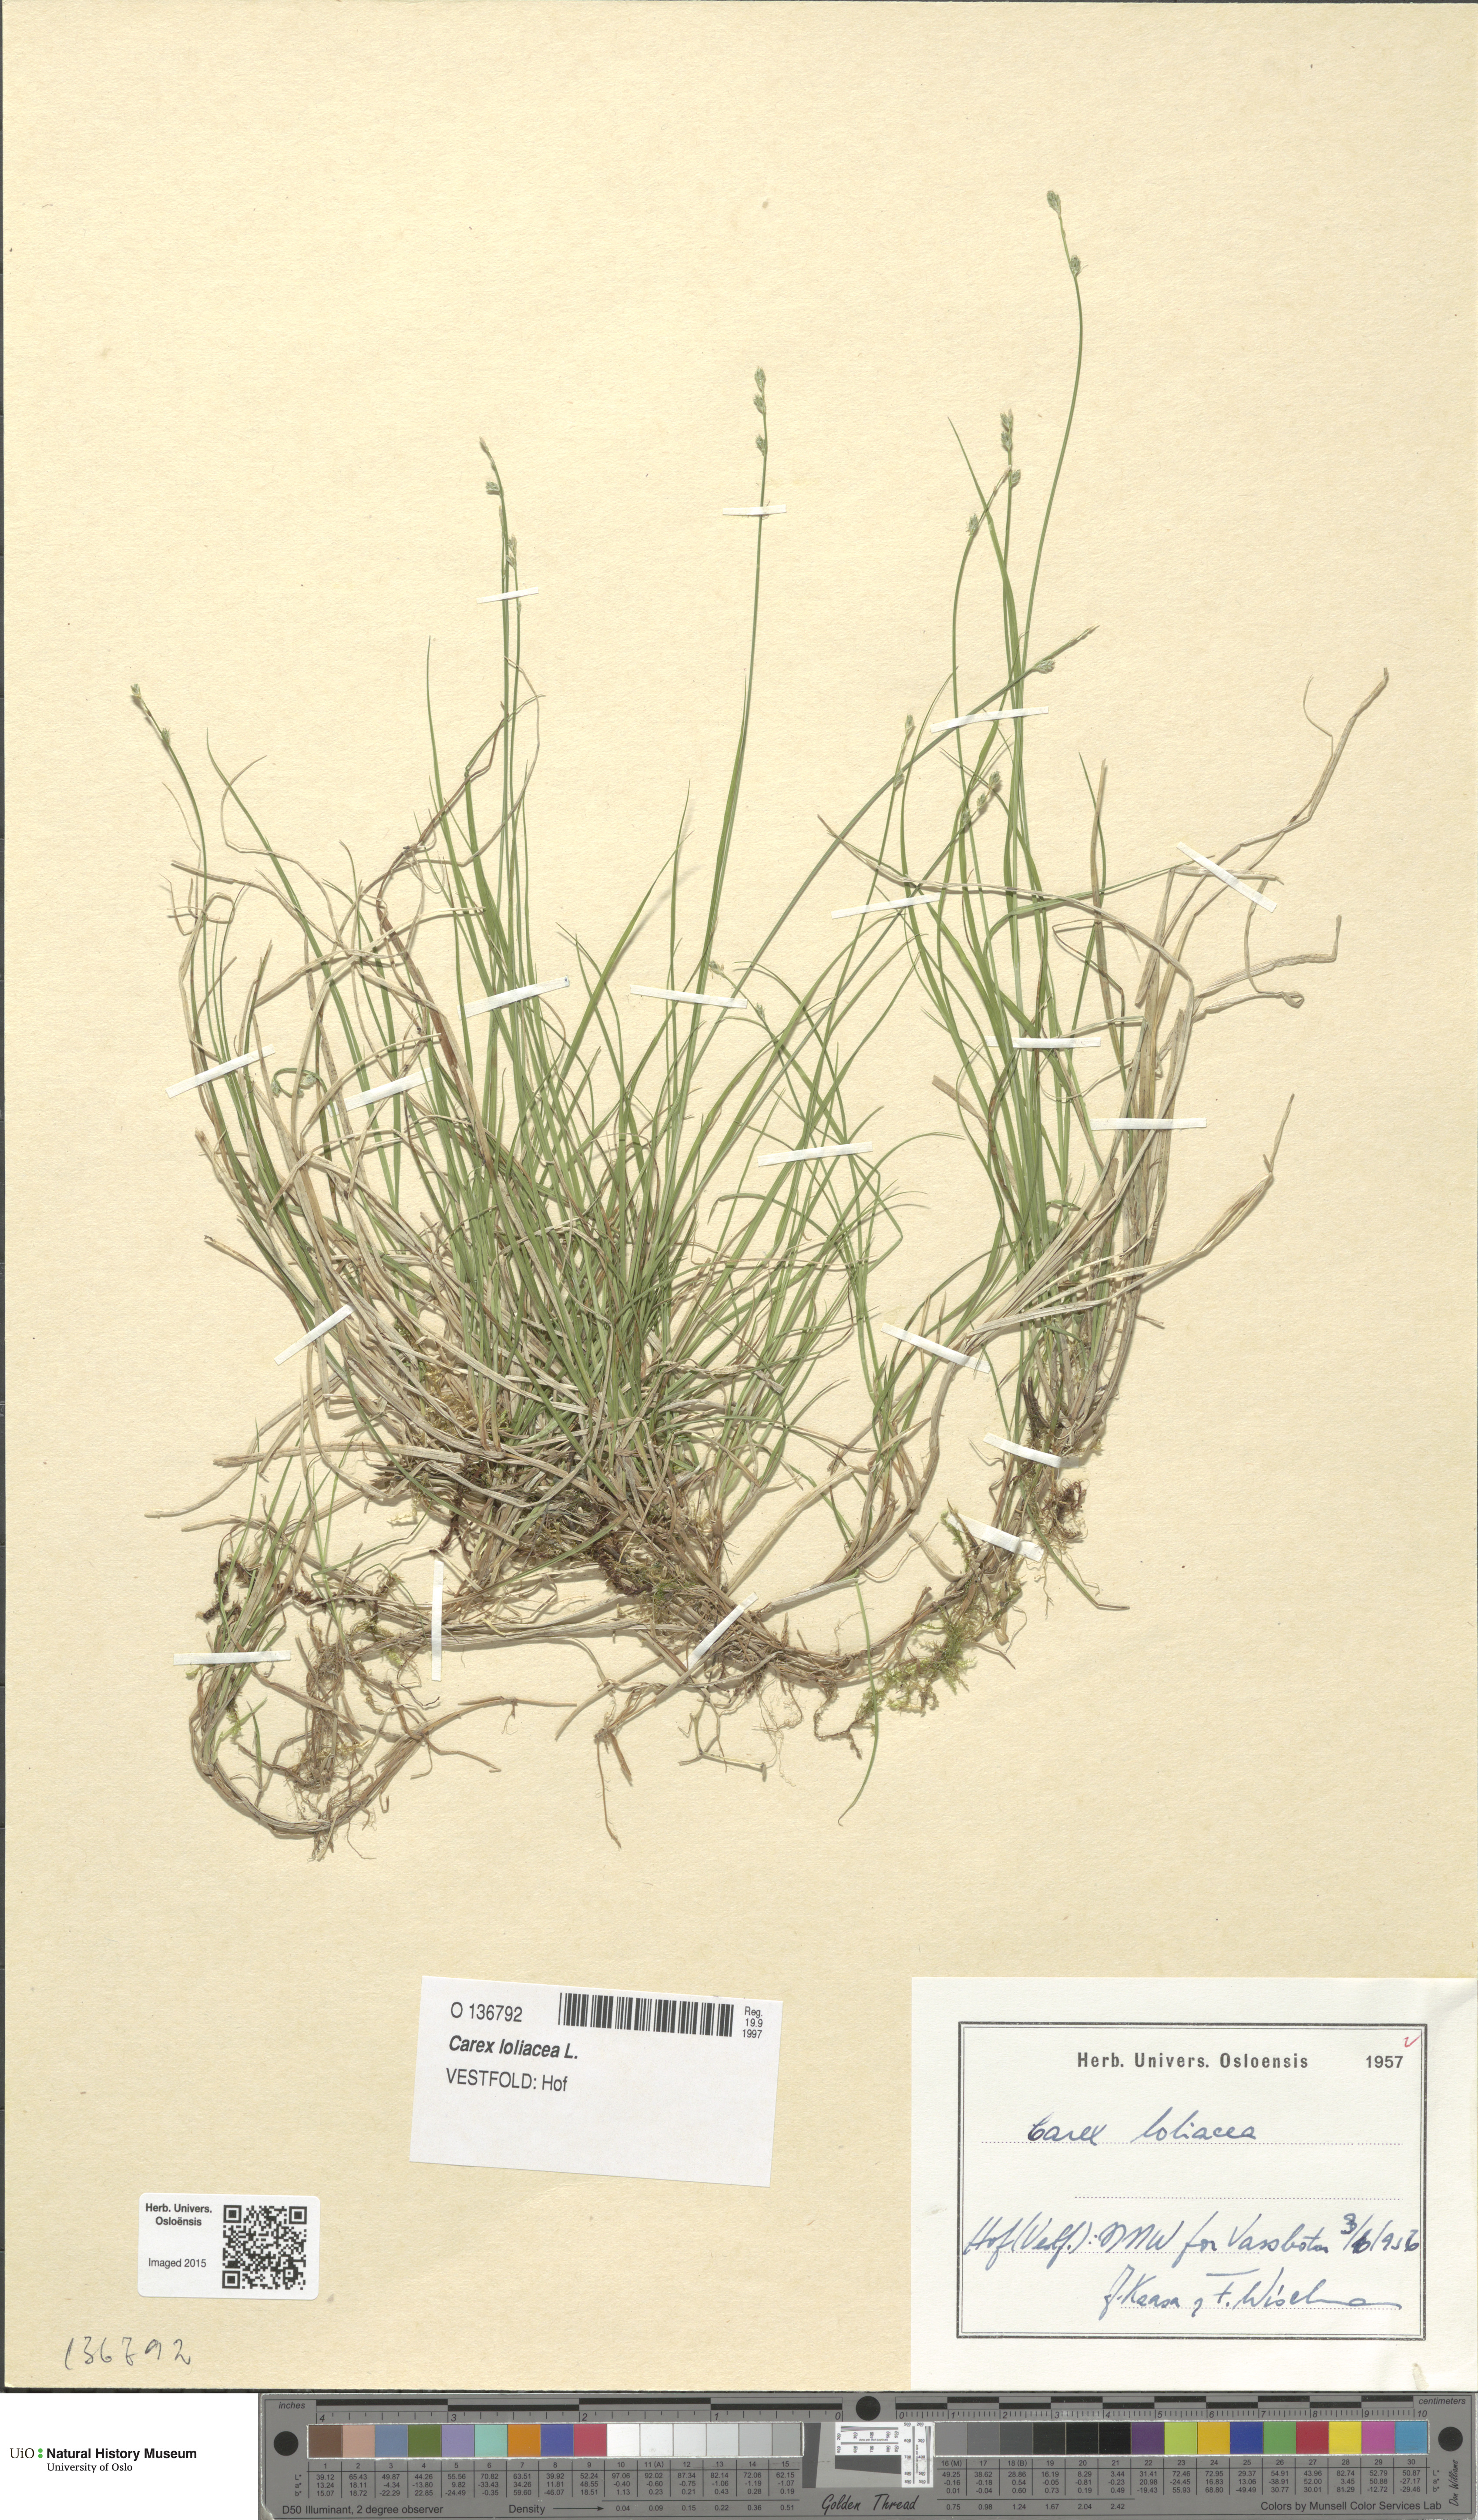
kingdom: Plantae
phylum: Tracheophyta
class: Liliopsida
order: Poales
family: Cyperaceae
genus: Carex
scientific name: Carex loliacea
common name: Ryegrass sedge
